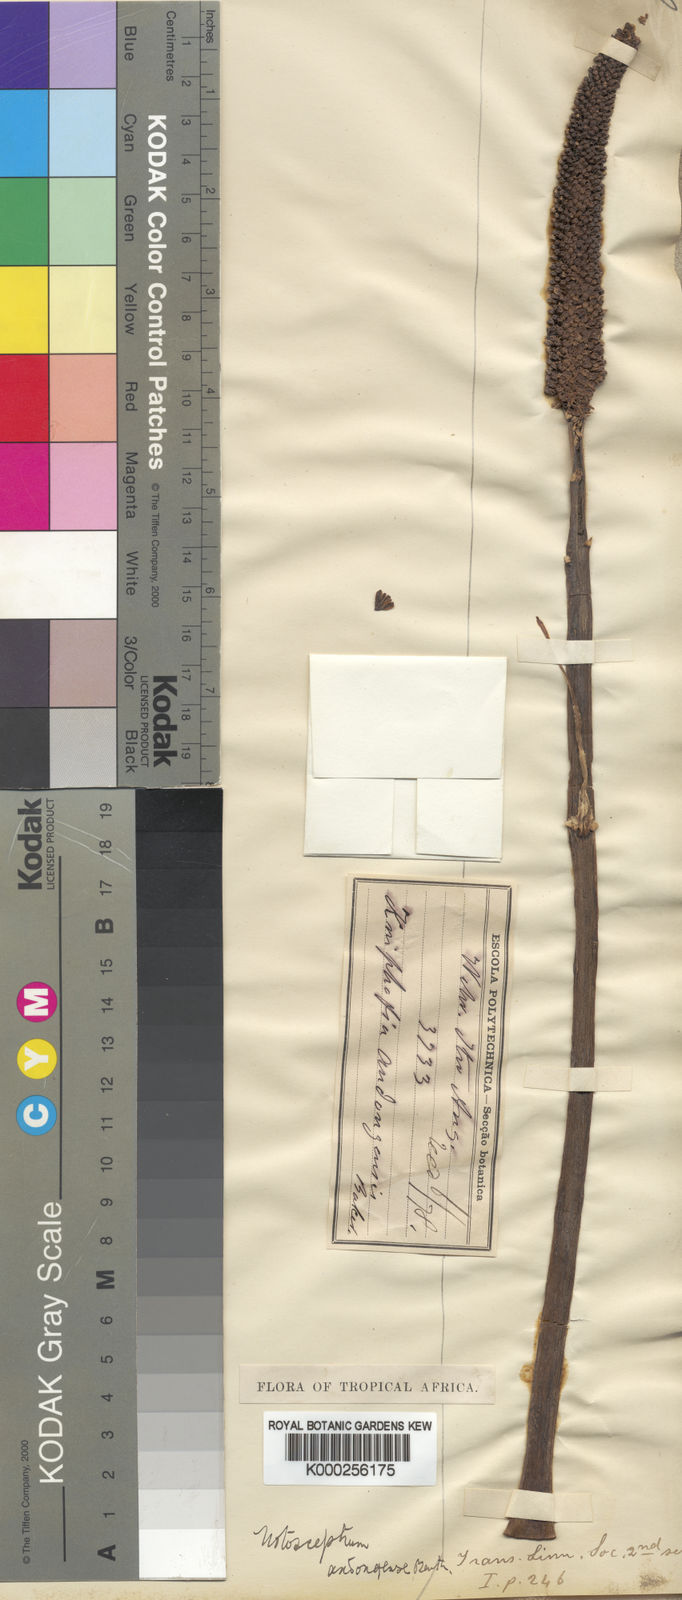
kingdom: Plantae
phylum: Tracheophyta
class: Liliopsida
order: Asparagales
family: Asphodelaceae
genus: Kniphofia
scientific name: Kniphofia benguellensis
